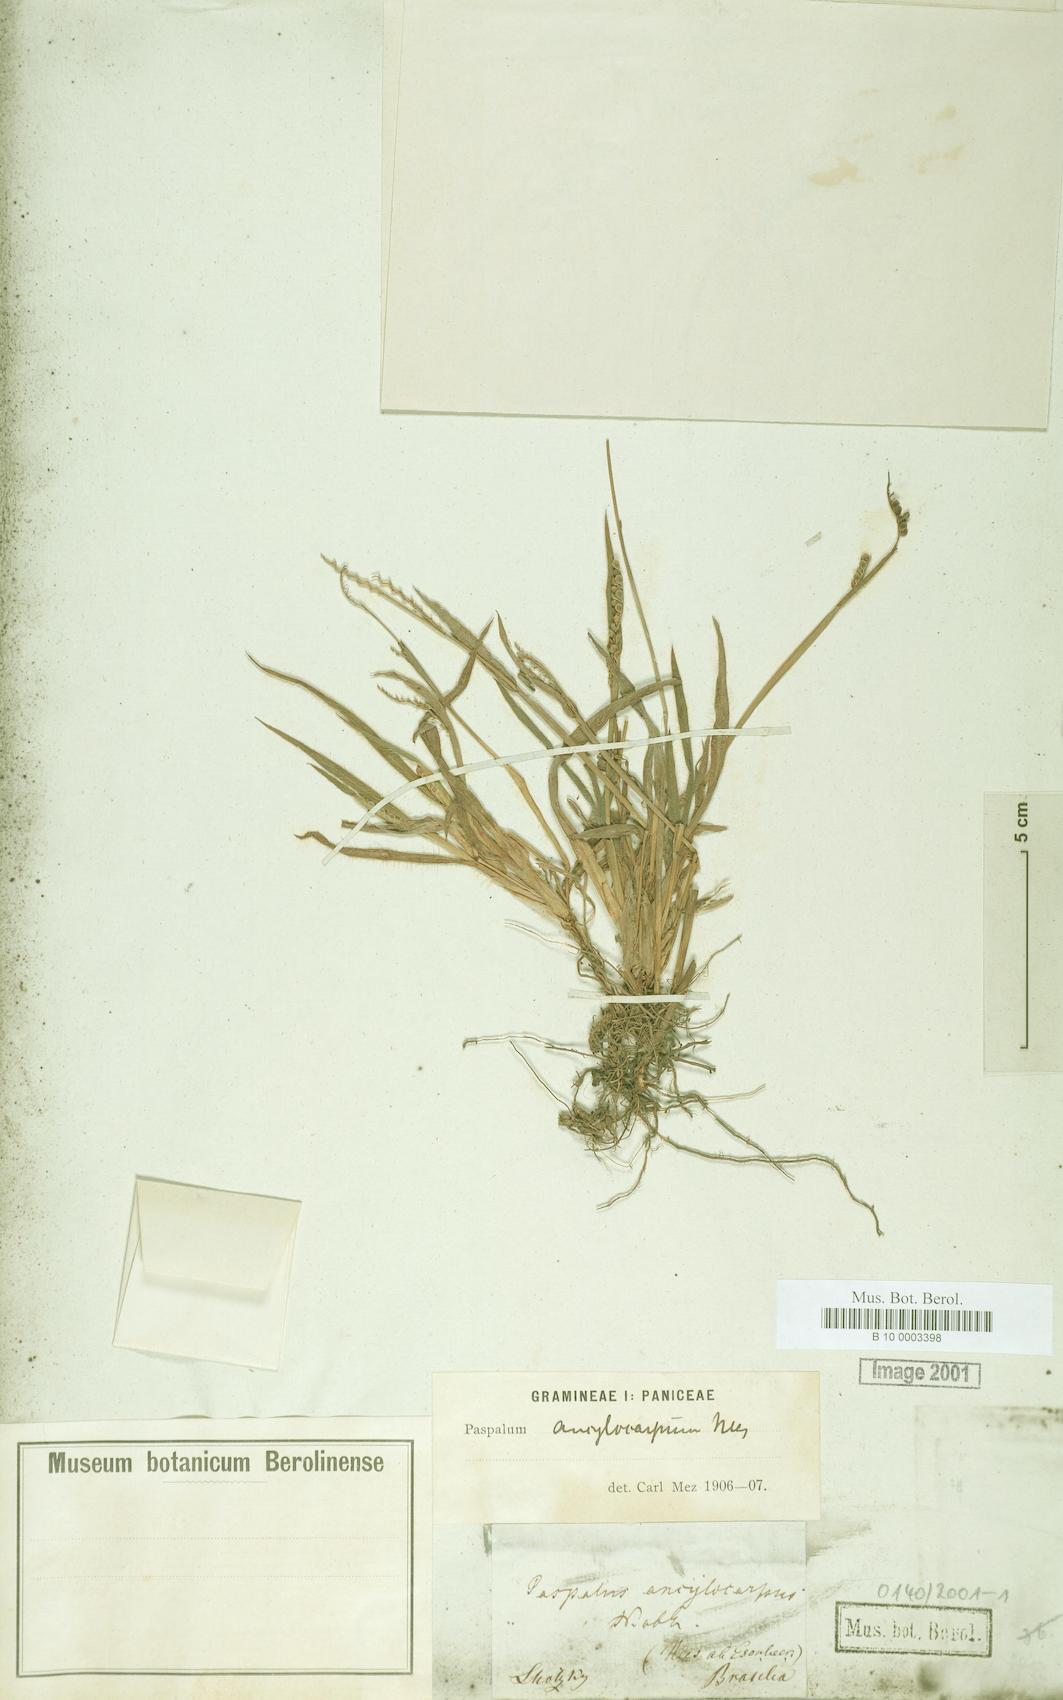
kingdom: Plantae
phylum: Tracheophyta
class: Liliopsida
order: Poales
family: Poaceae
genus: Paspalum
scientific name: Paspalum convexum
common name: Latin american crowngrass
